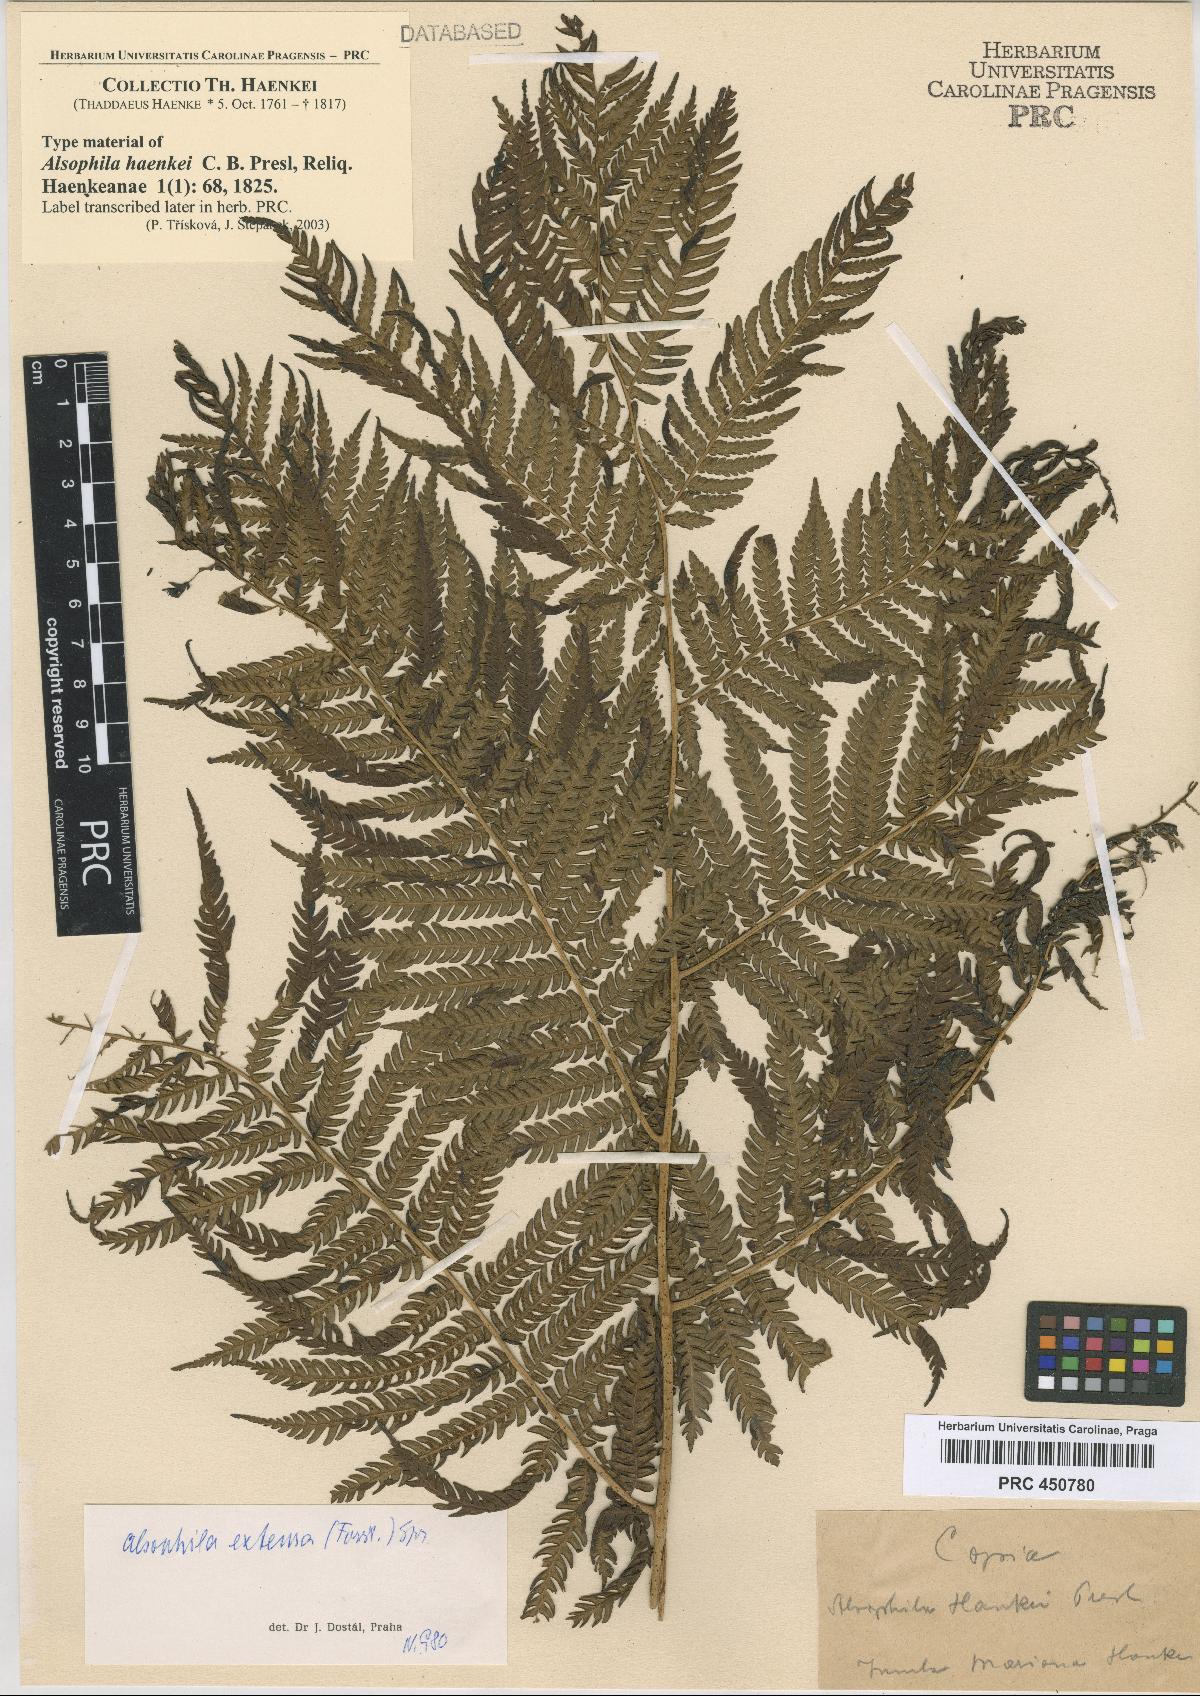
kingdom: Plantae
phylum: Tracheophyta
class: Polypodiopsida
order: Cyatheales
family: Cyatheaceae
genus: Sphaeropteris
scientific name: Sphaeropteris lunulata
